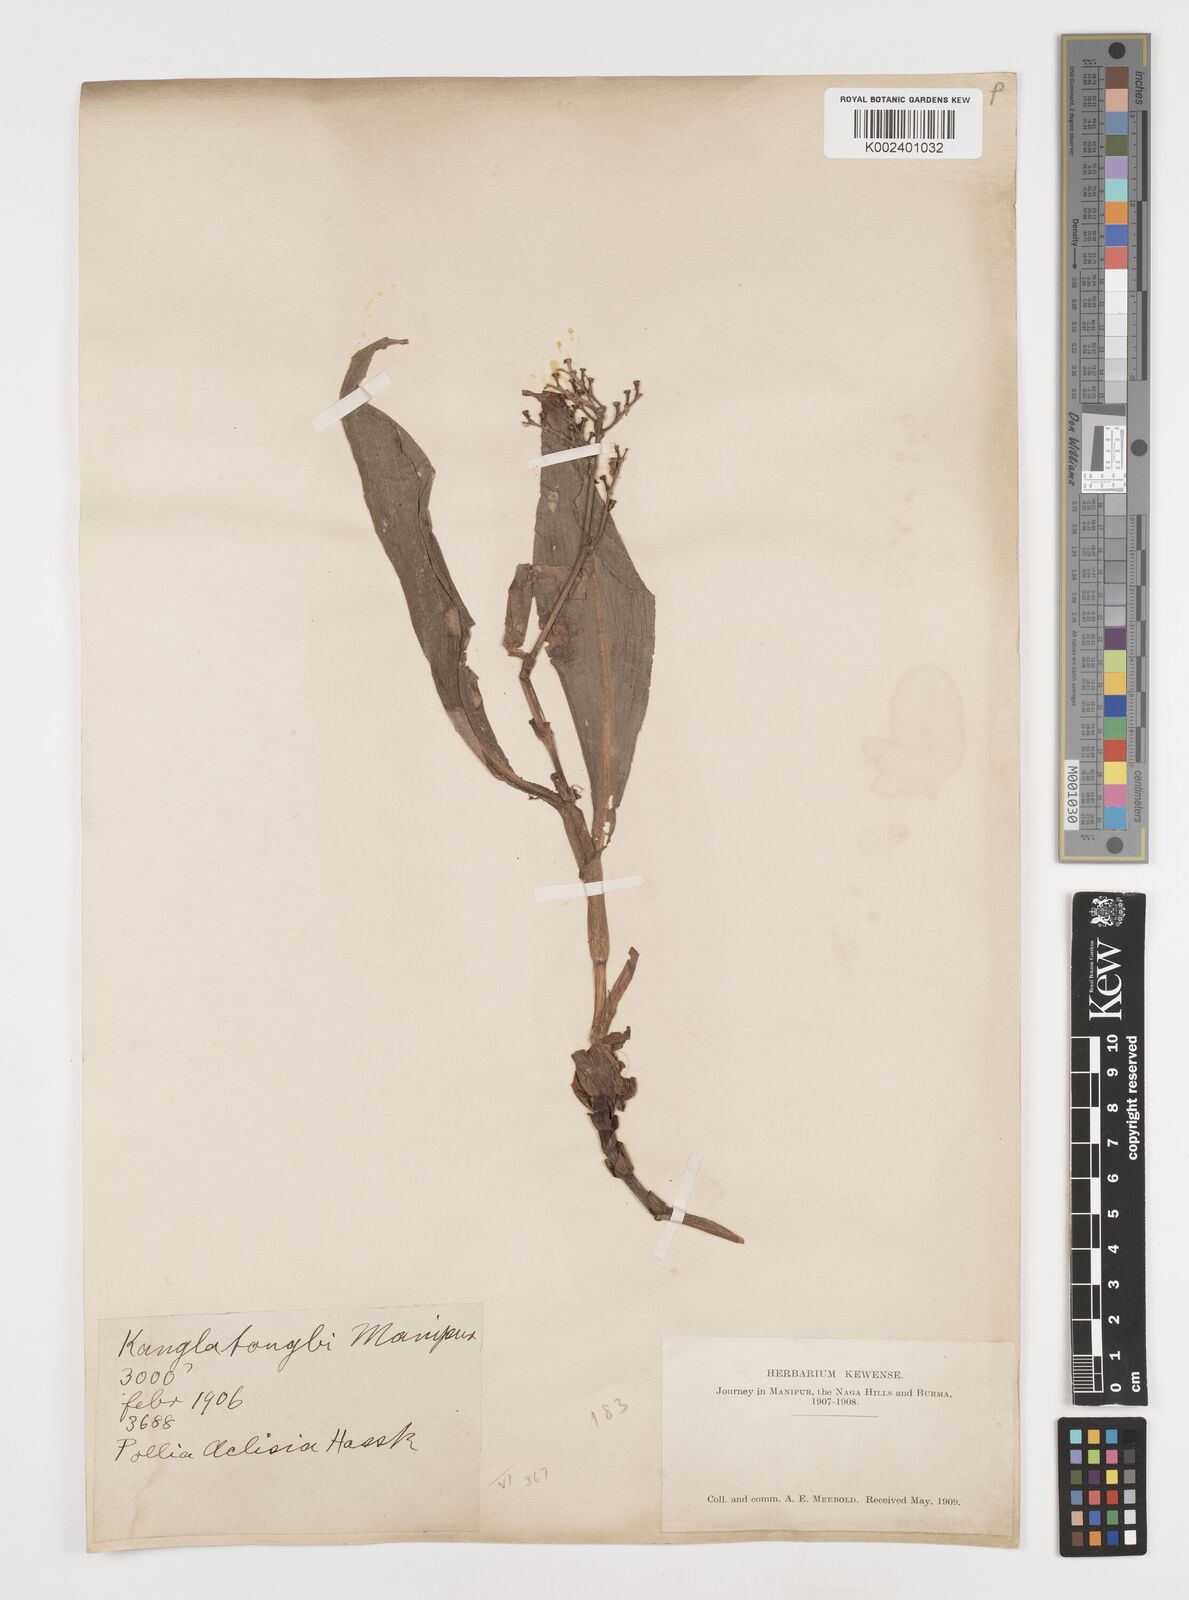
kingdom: Plantae
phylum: Tracheophyta
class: Liliopsida
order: Commelinales
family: Commelinaceae
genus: Pollia
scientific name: Pollia hasskarlii
